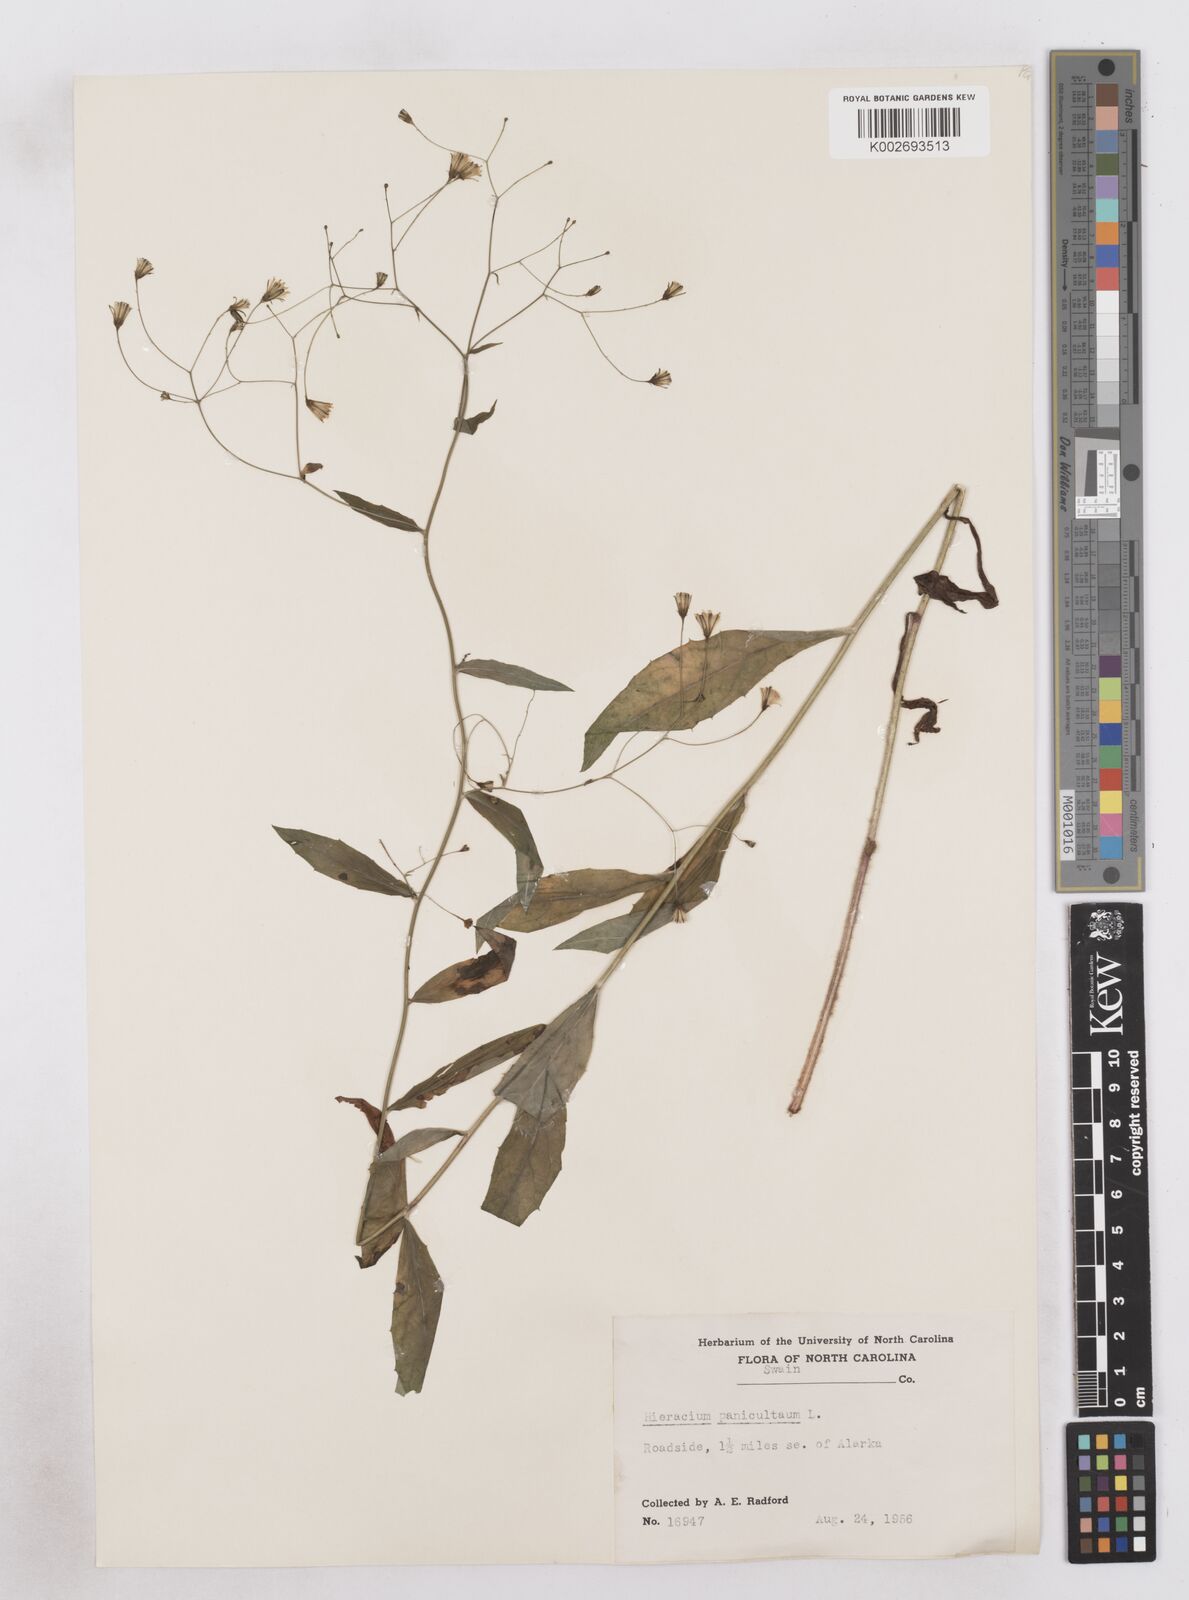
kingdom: Plantae
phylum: Tracheophyta
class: Magnoliopsida
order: Asterales
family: Asteraceae
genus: Hieracium
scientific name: Hieracium paniculatum
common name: Allegheny hawkweed
